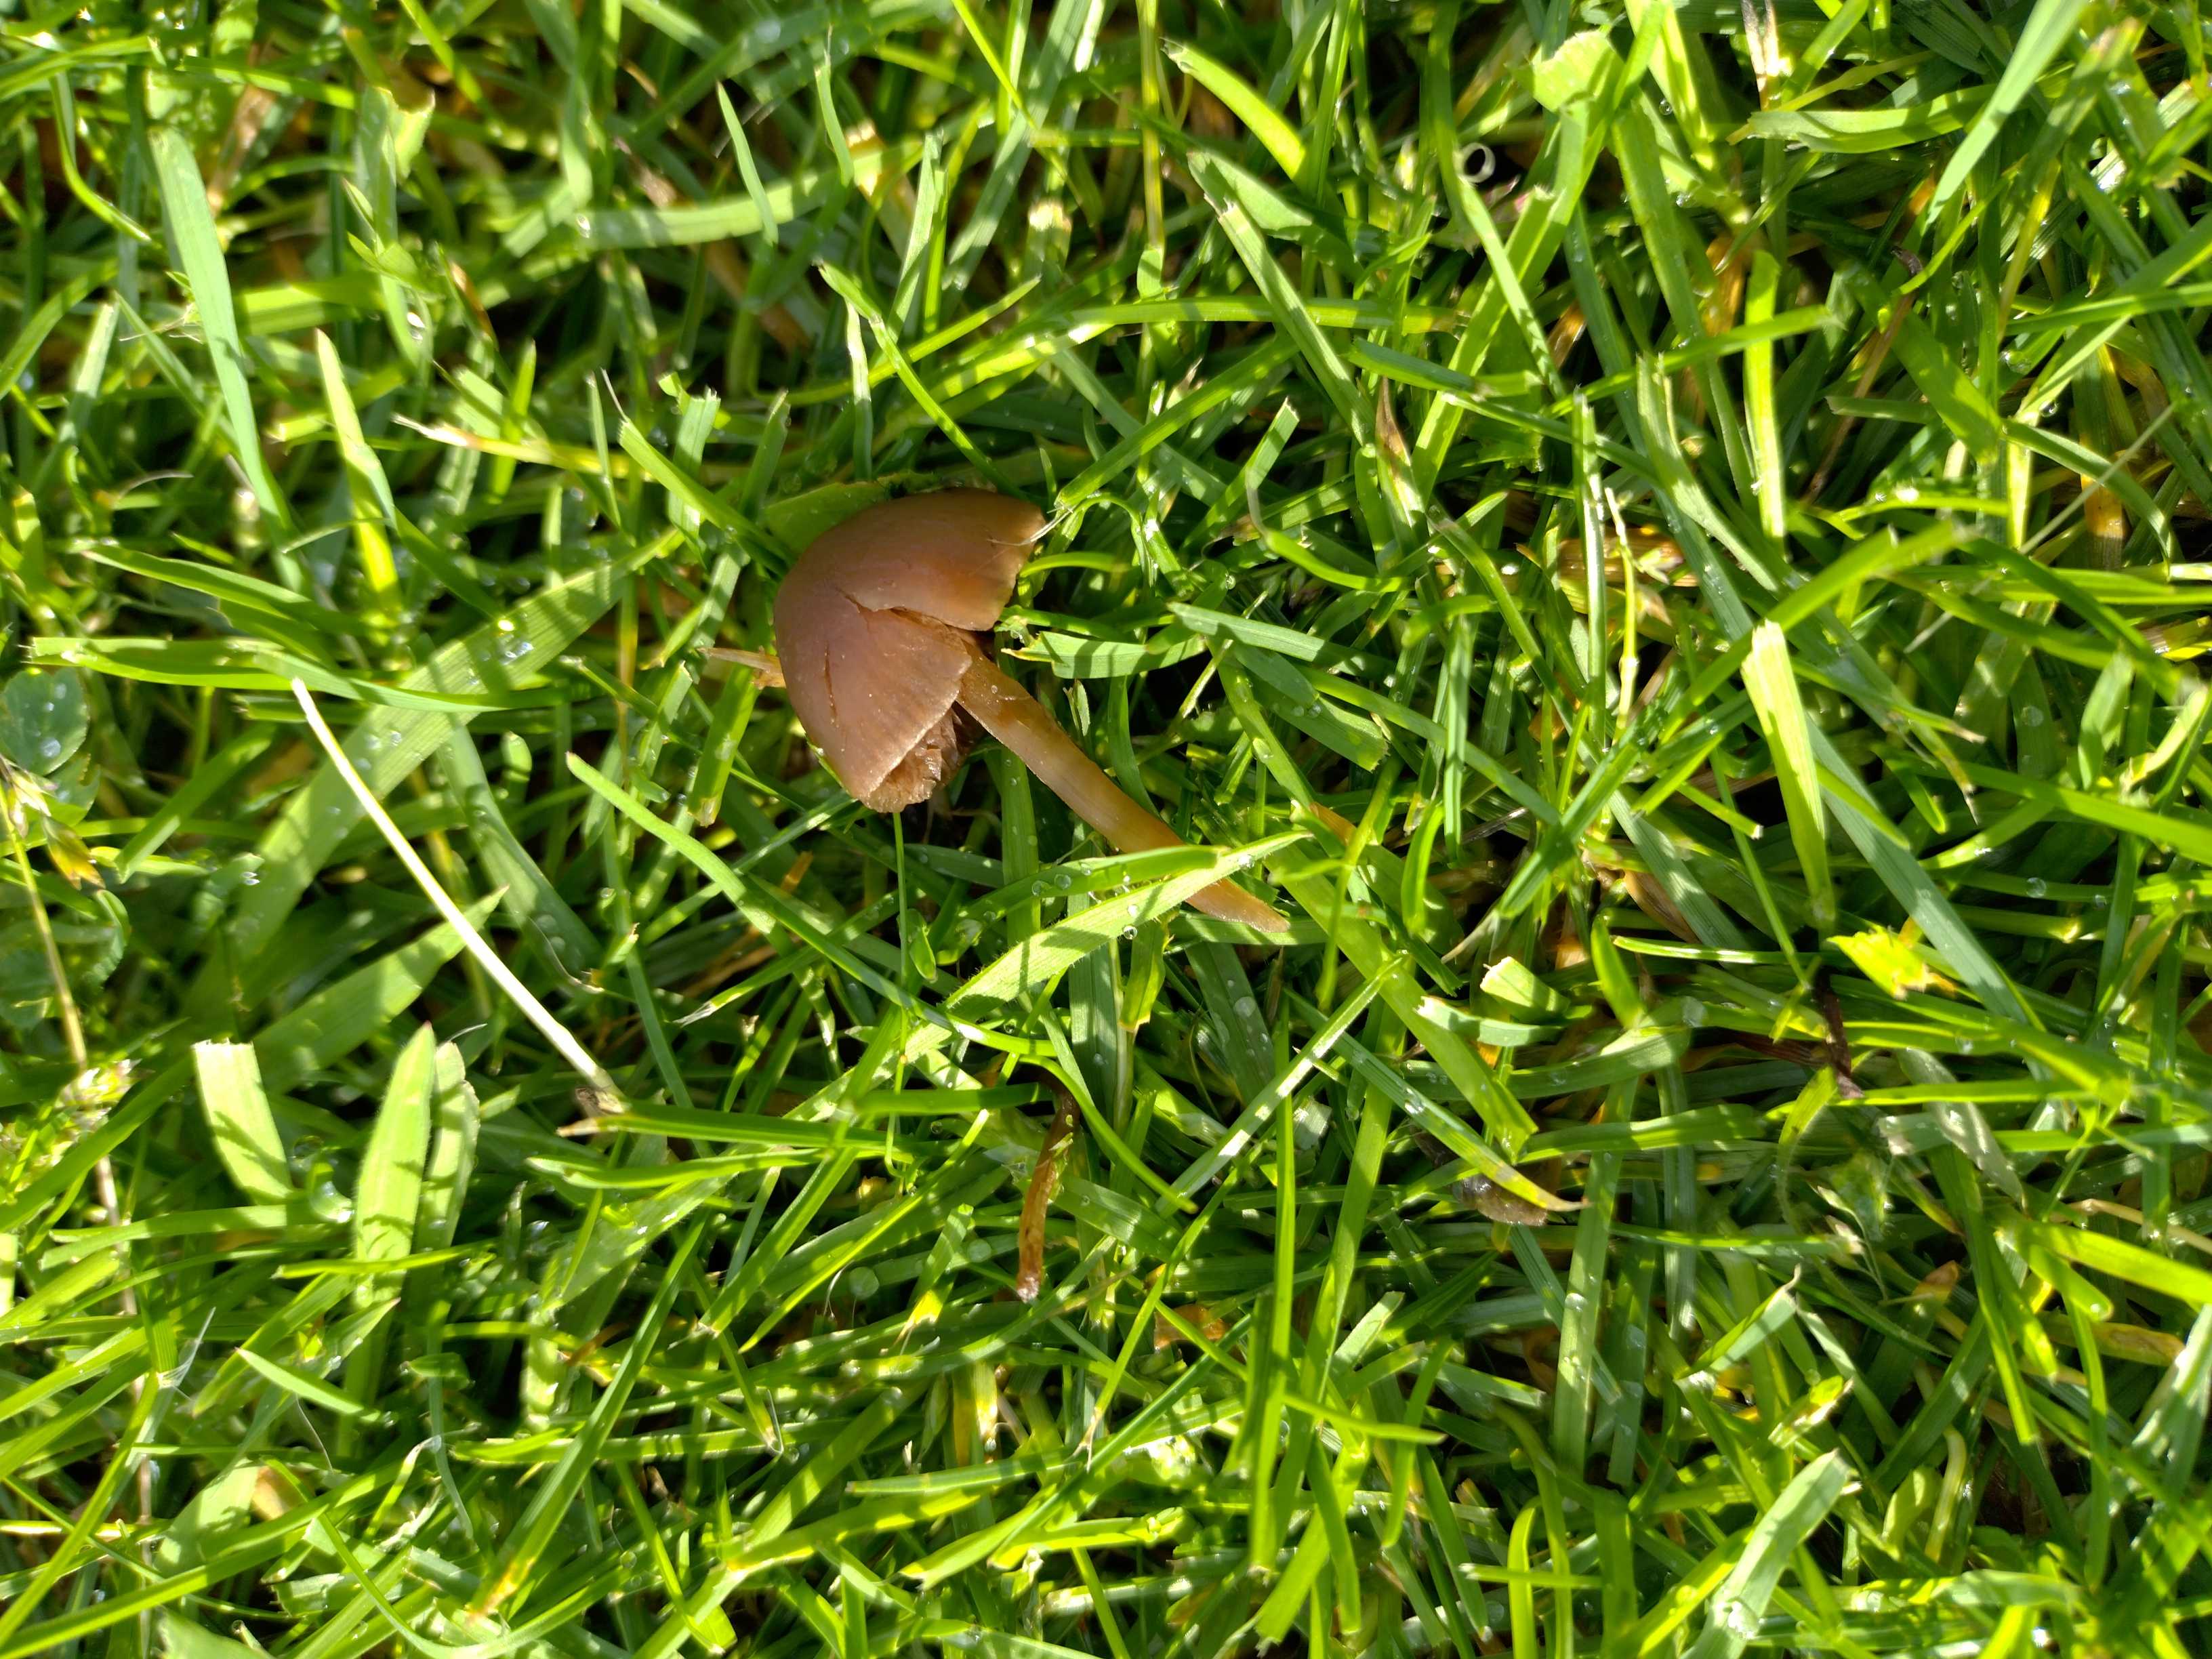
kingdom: Fungi
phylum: Basidiomycota
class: Agaricomycetes
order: Agaricales
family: Bolbitiaceae
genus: Panaeolina
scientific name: Panaeolina foenisecii
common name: høslætsvamp
